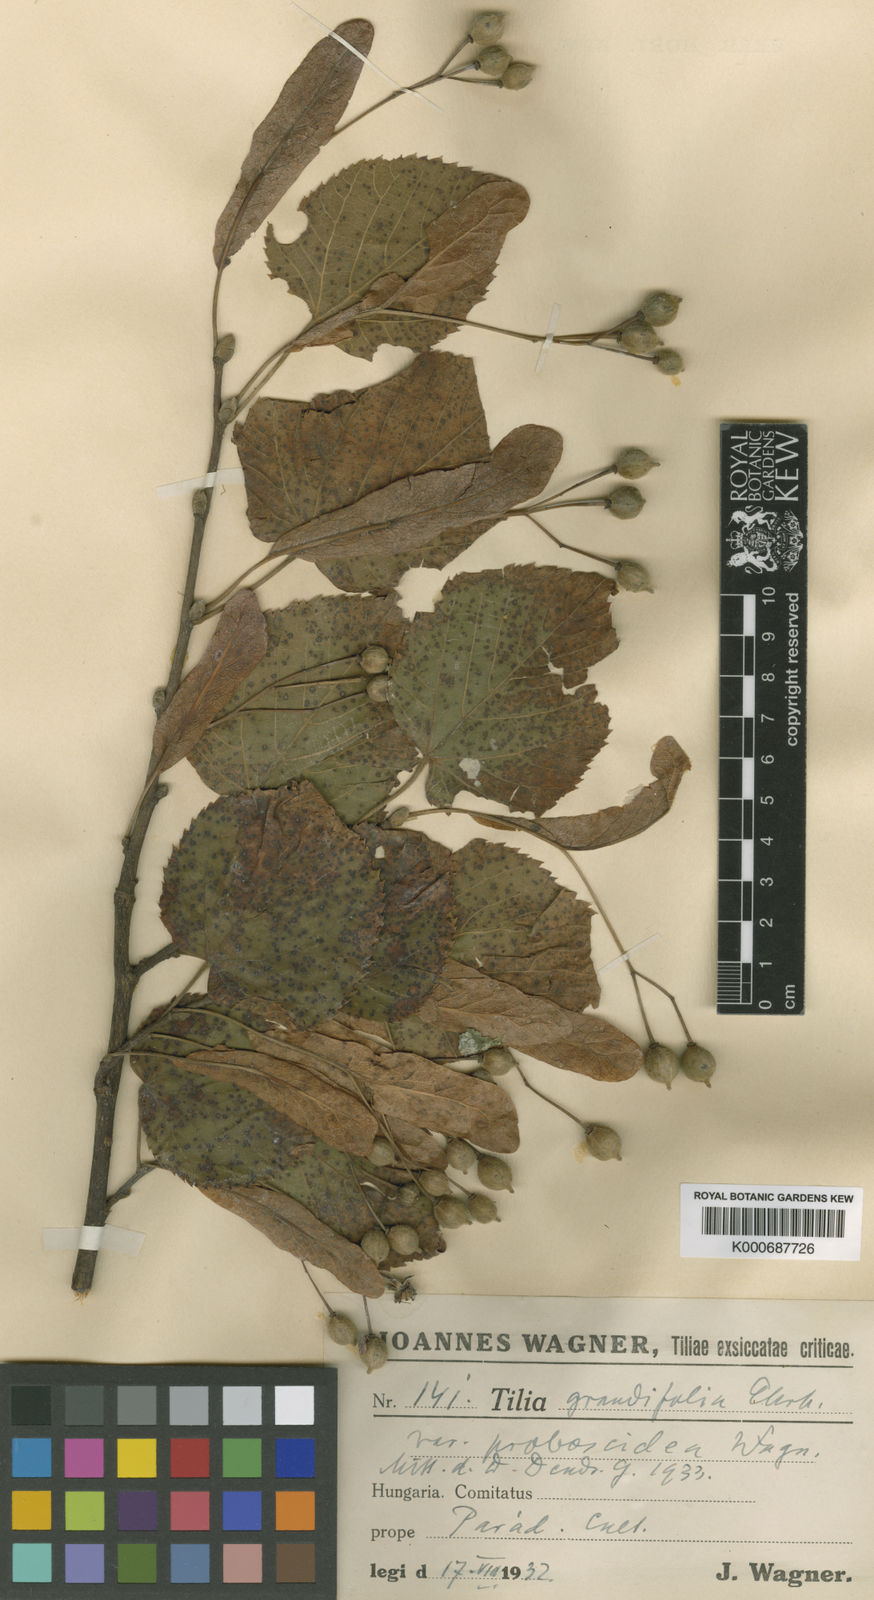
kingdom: Plantae
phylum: Tracheophyta
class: Magnoliopsida
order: Malvales
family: Malvaceae
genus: Tilia
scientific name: Tilia platyphyllos
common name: Large-leaved lime
